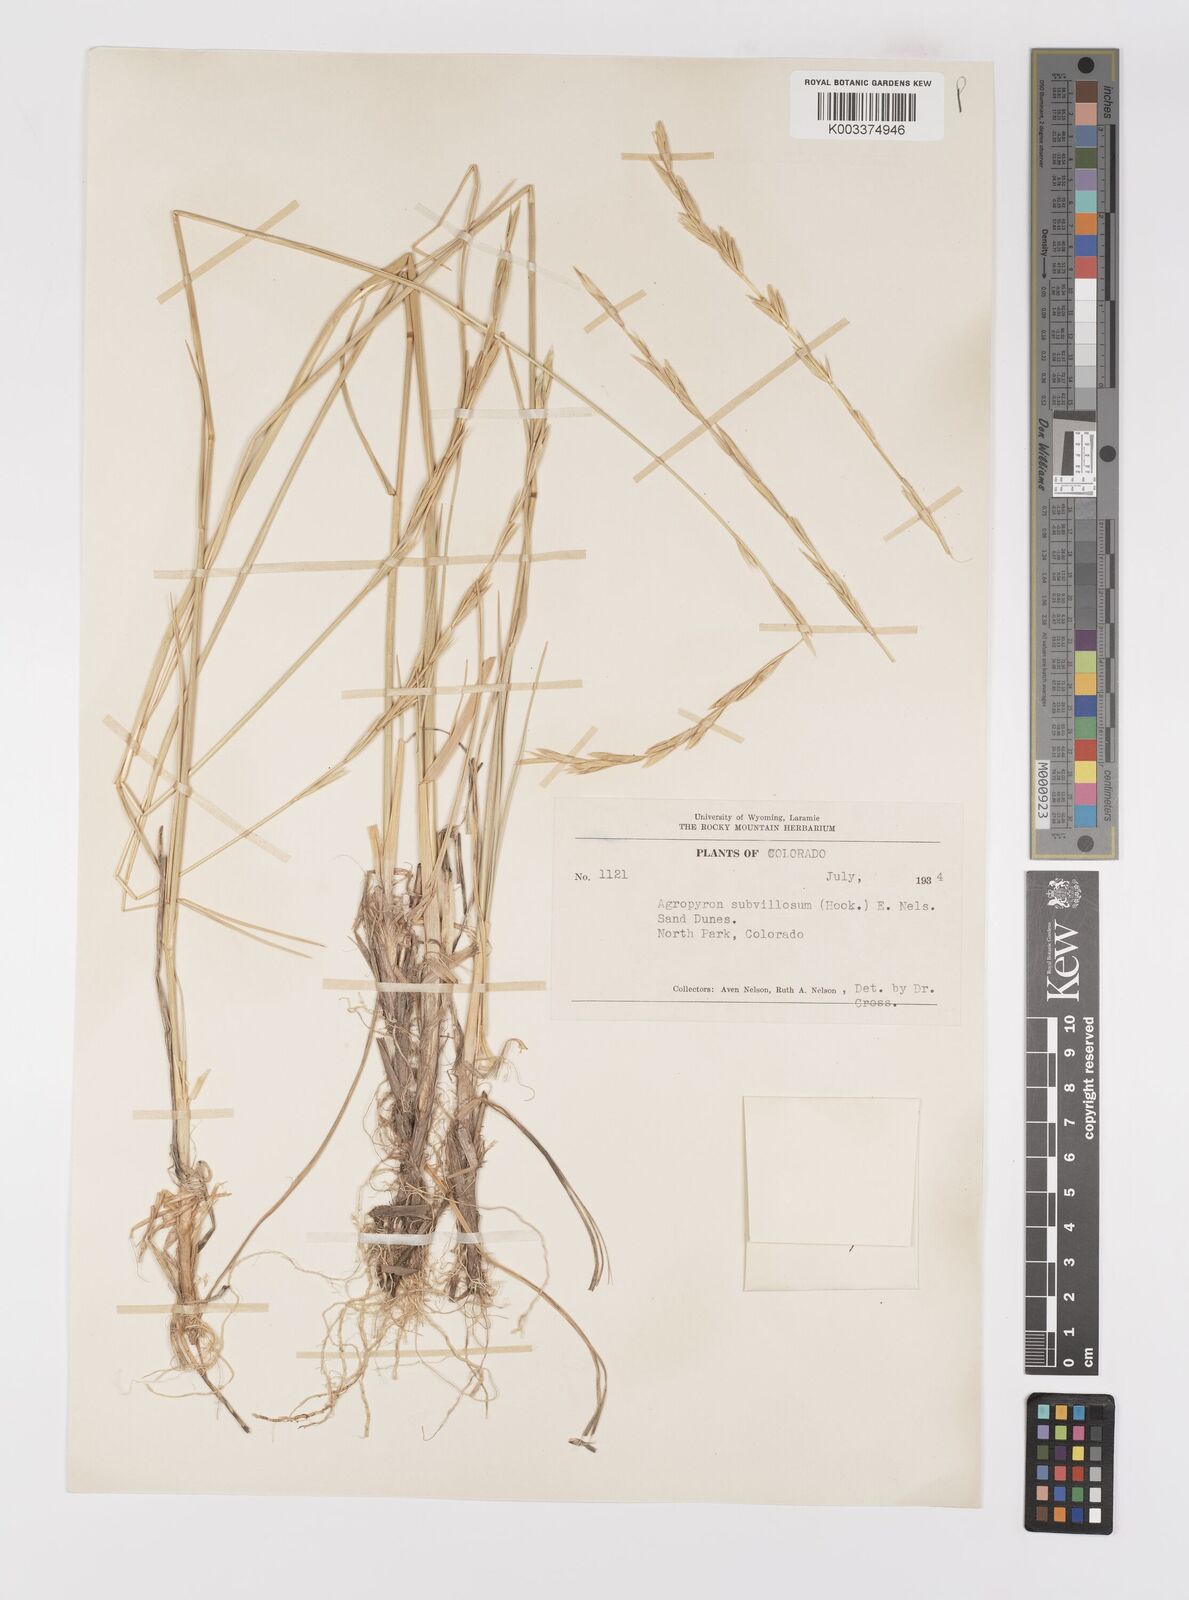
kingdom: Plantae
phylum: Tracheophyta
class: Liliopsida
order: Poales
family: Poaceae
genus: Elymus
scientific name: Elymus lanceolatus
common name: Thick-spike wheatgrass
